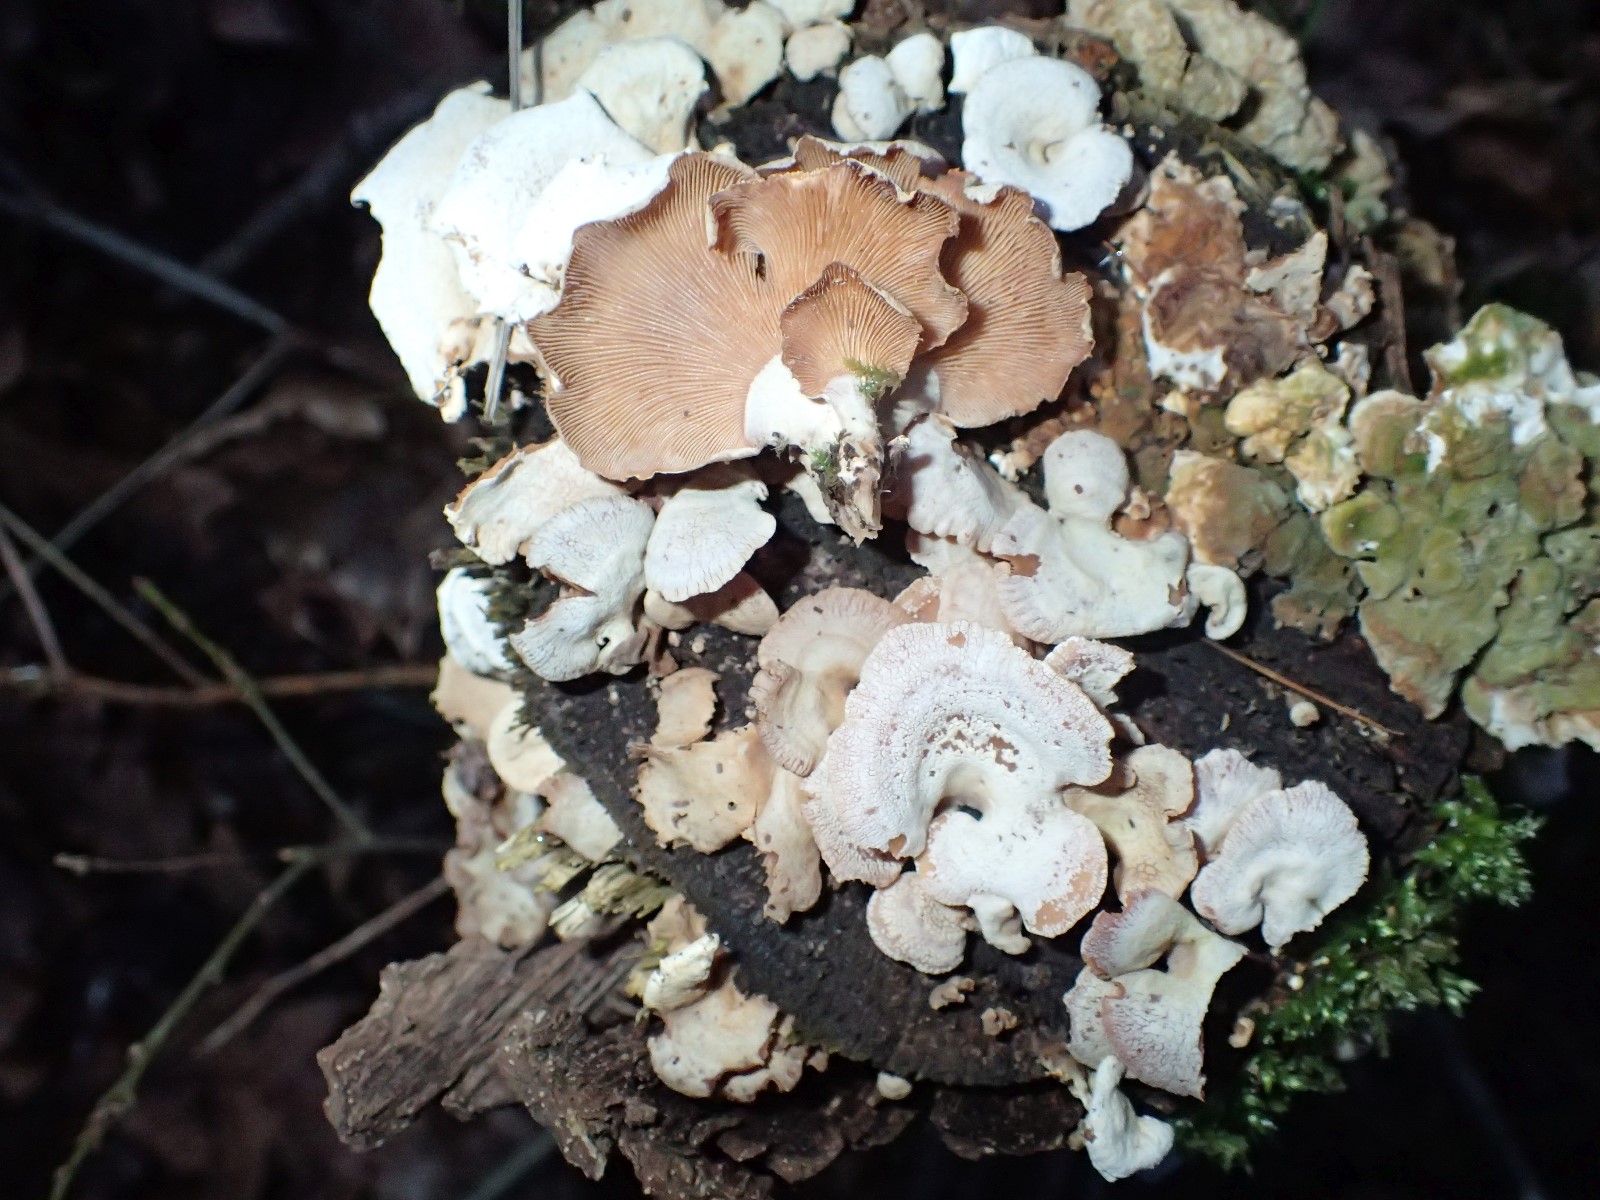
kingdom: Fungi
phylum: Basidiomycota
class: Agaricomycetes
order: Agaricales
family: Mycenaceae
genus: Panellus
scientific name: Panellus stipticus
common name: kliddet epaulethat
